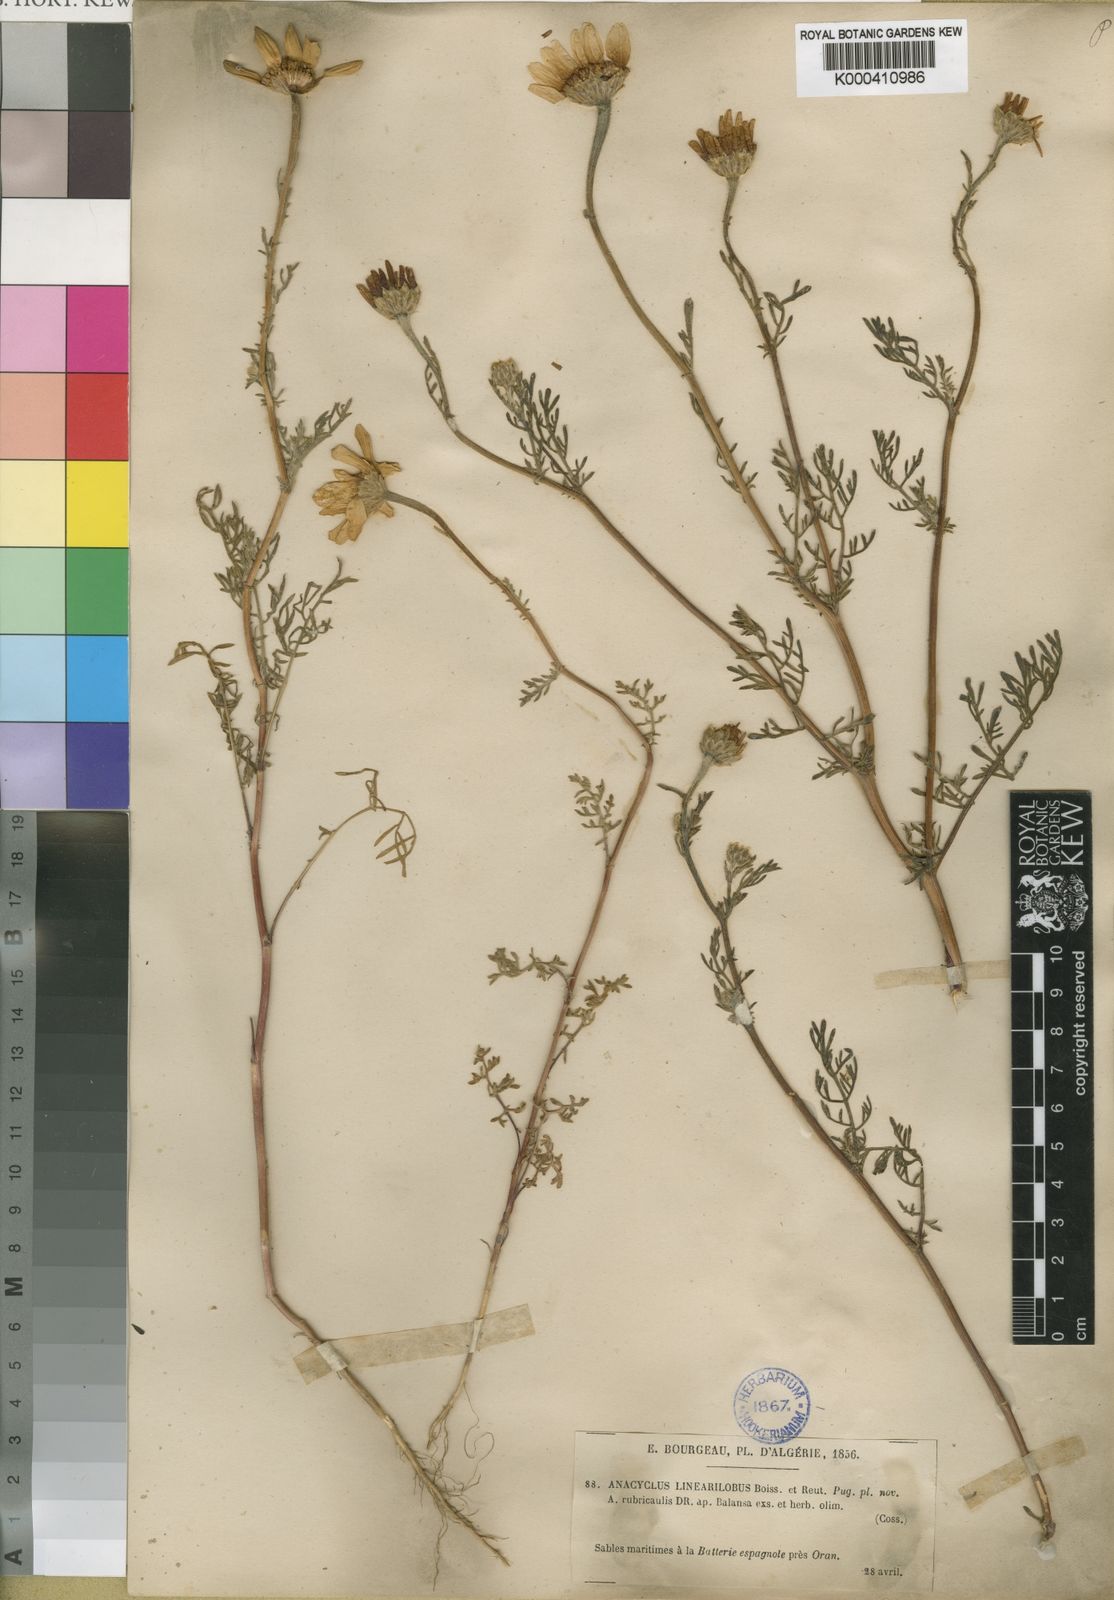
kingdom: Plantae
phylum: Tracheophyta
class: Magnoliopsida
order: Asterales
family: Asteraceae
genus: Anacyclus
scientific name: Anacyclus linearilobus
